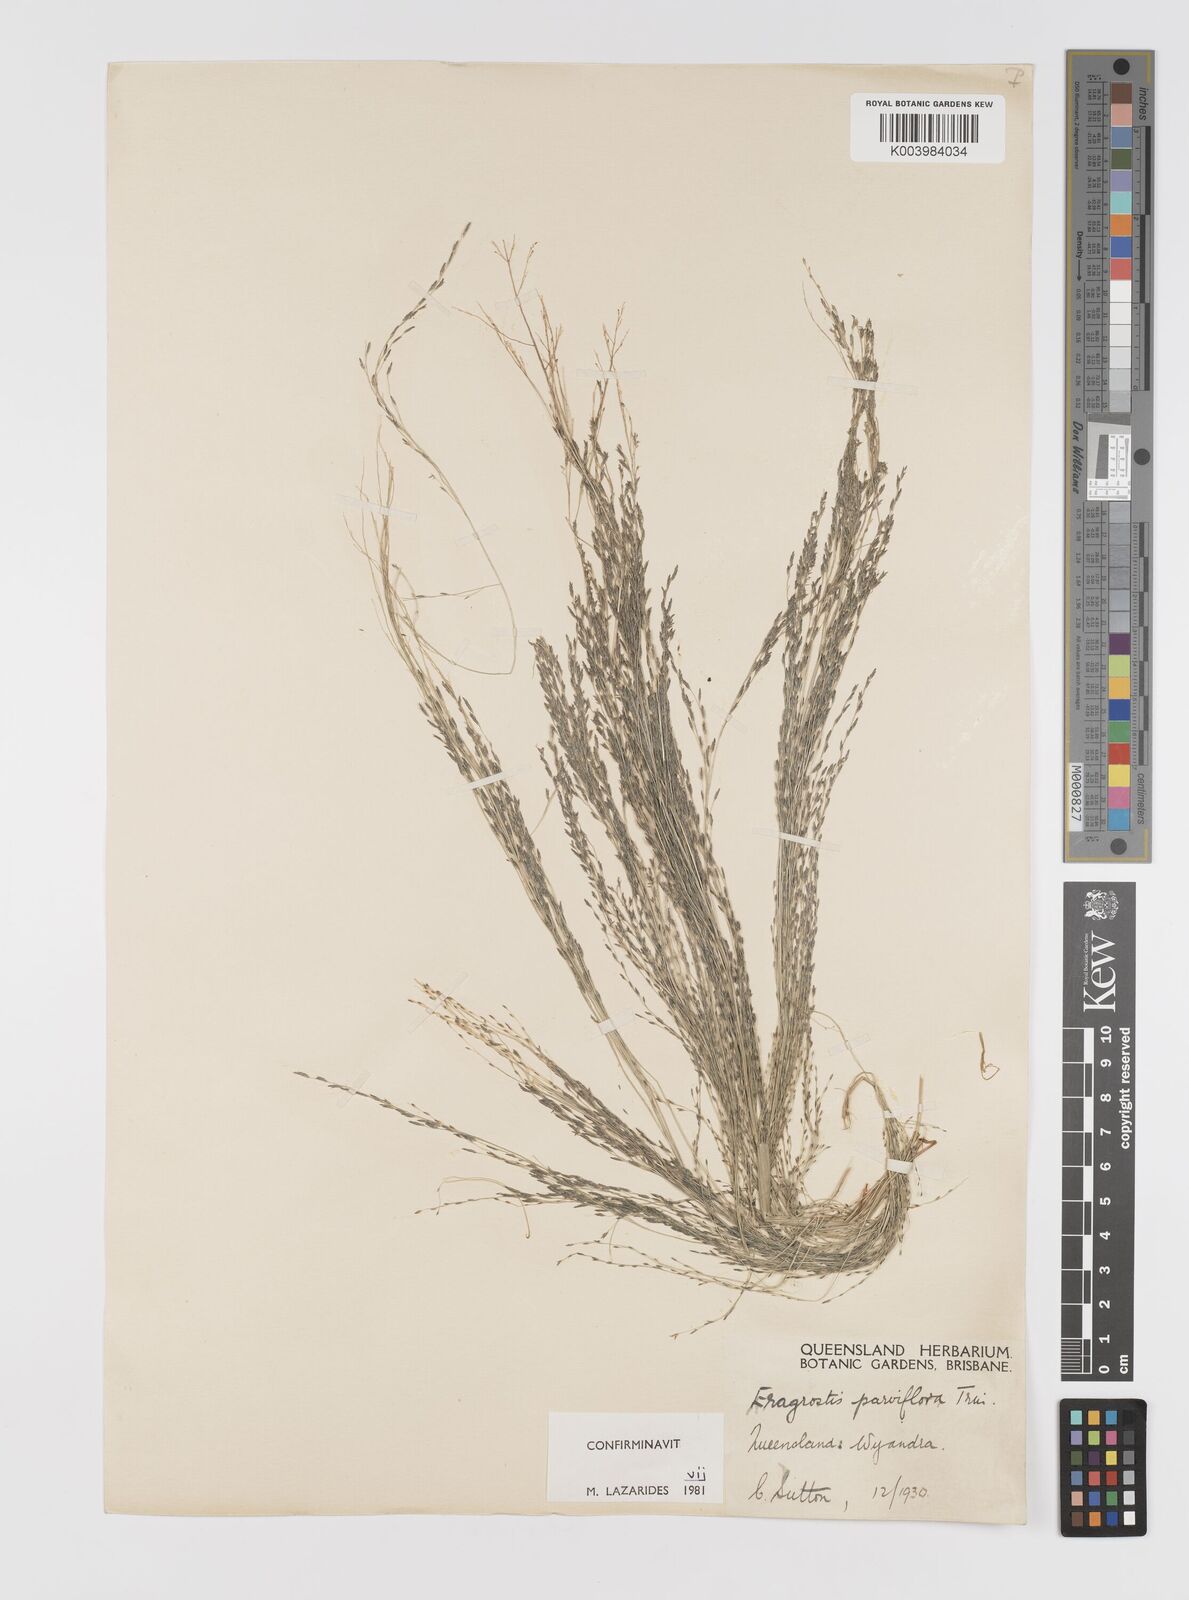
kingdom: Plantae
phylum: Tracheophyta
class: Liliopsida
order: Poales
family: Poaceae
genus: Eragrostis
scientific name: Eragrostis parviflora
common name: Weeping love-grass
